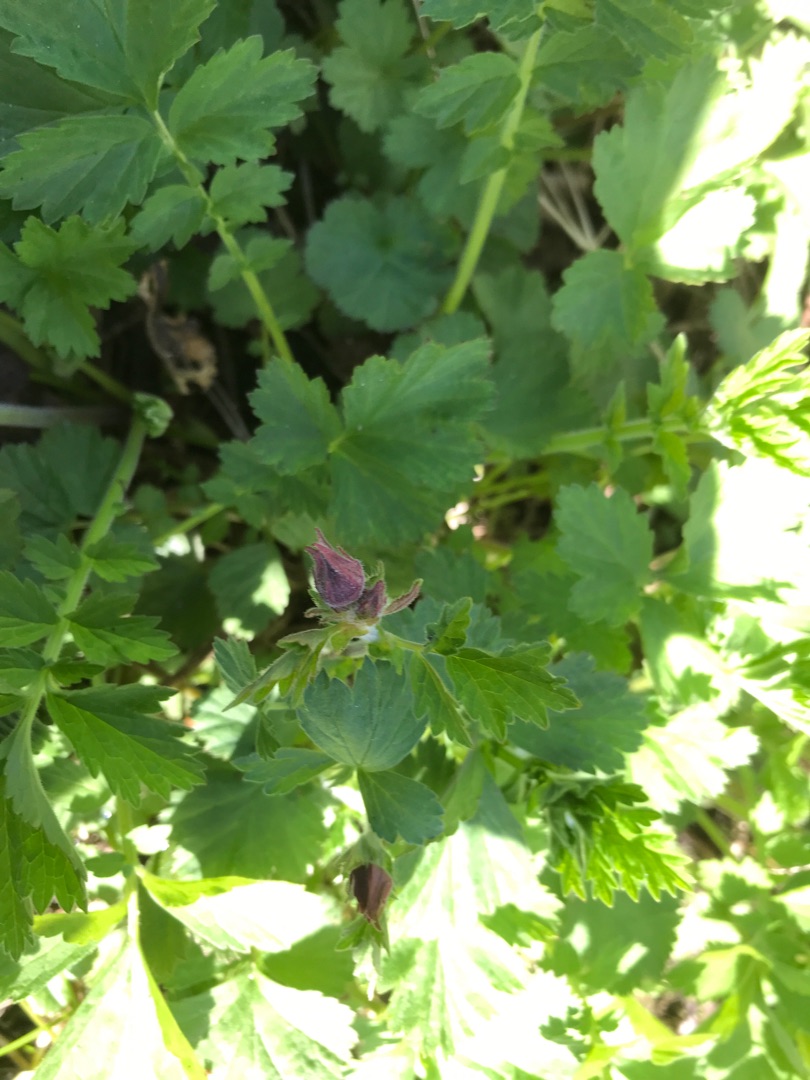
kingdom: Plantae
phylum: Tracheophyta
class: Magnoliopsida
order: Rosales
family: Rosaceae
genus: Geum
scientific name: Geum rivale
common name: Eng-nellikerod
